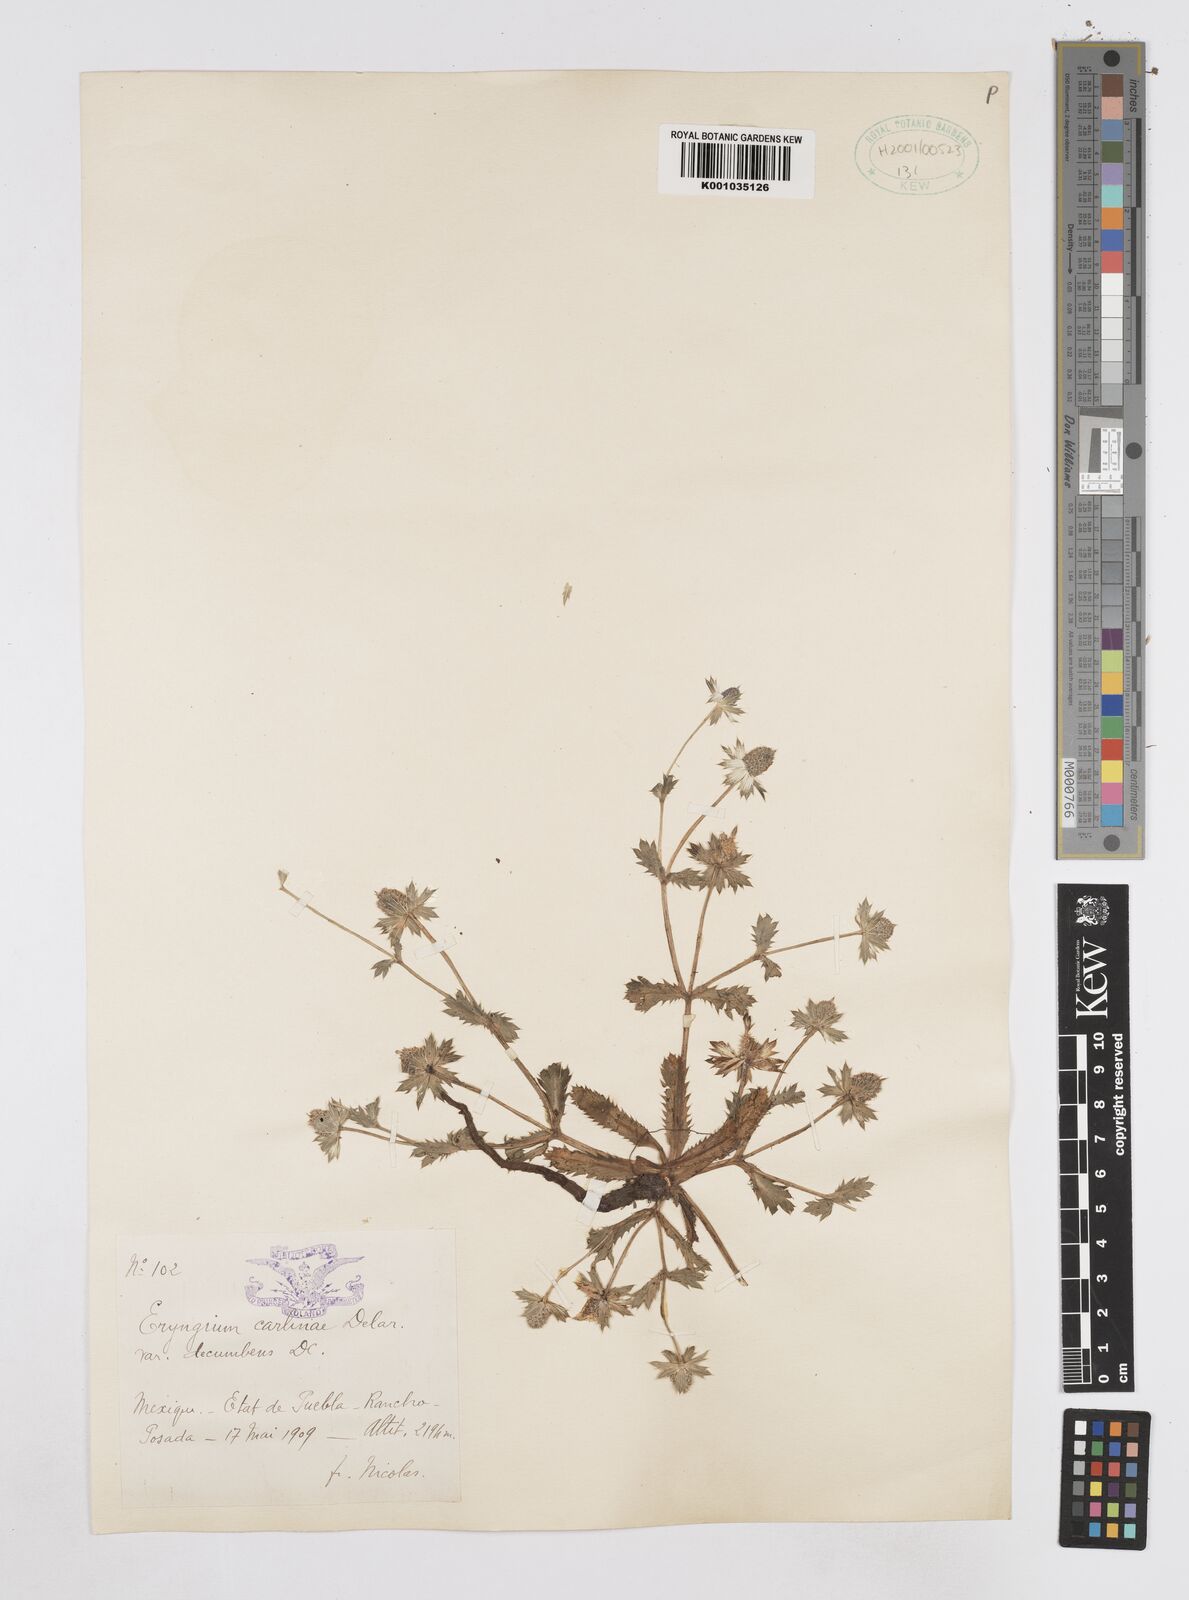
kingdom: Plantae
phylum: Tracheophyta
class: Magnoliopsida
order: Apiales
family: Apiaceae
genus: Eryngium
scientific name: Eryngium carlinae
